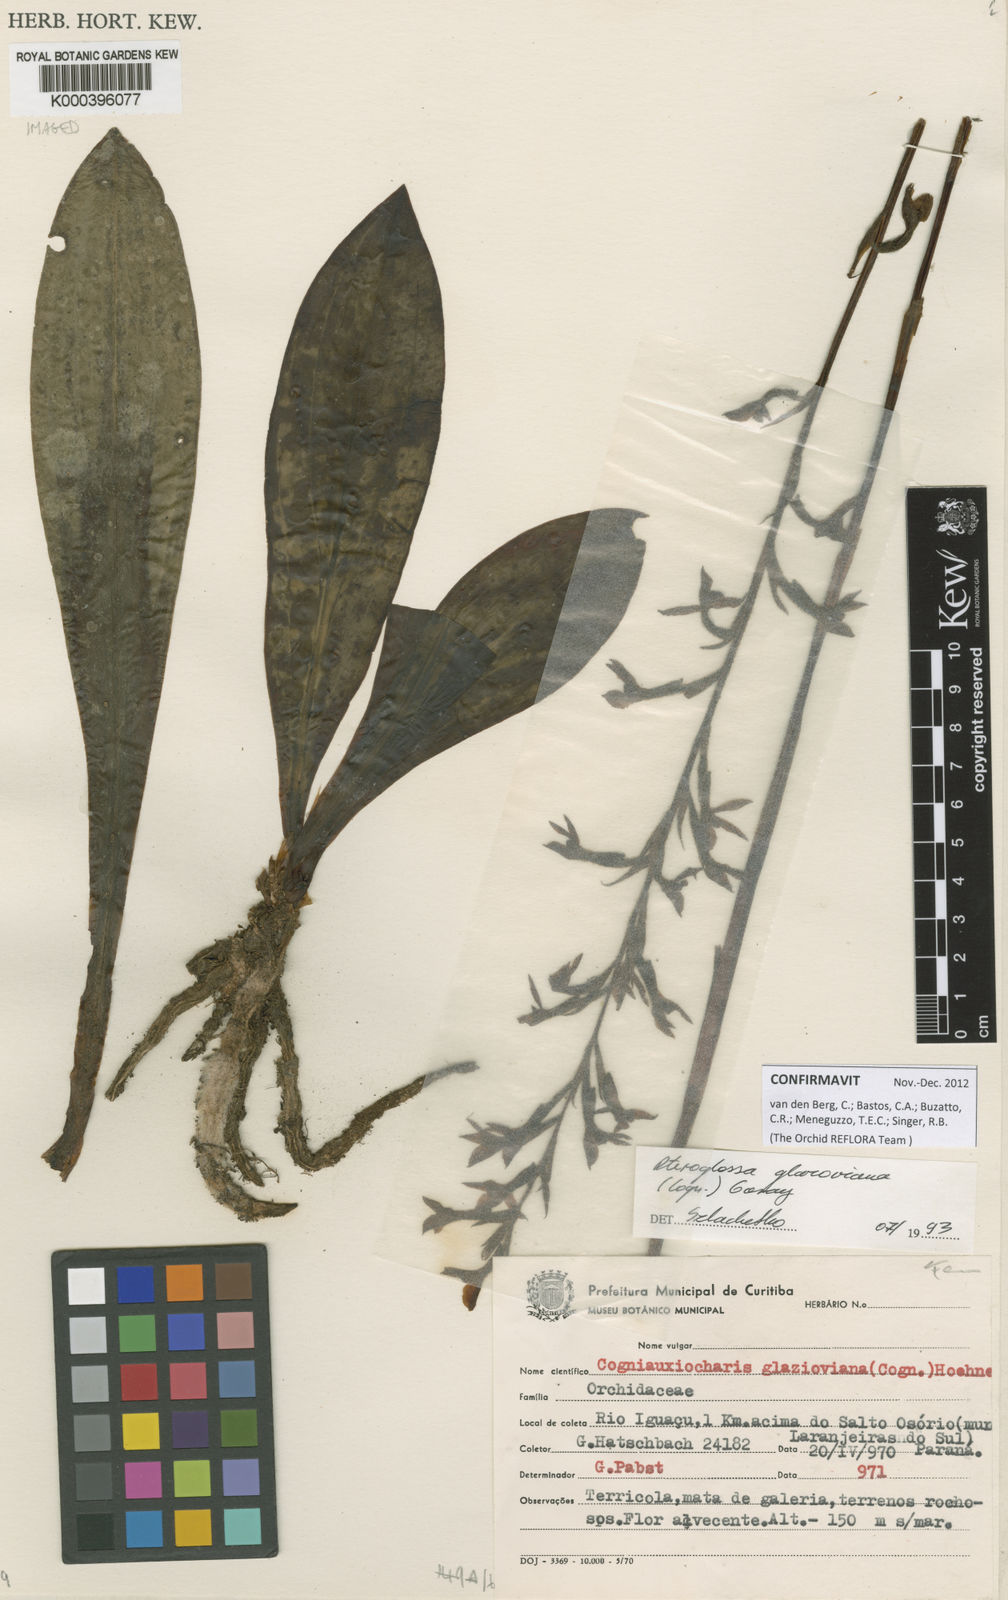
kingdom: Plantae
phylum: Tracheophyta
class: Liliopsida
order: Asparagales
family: Orchidaceae
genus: Pteroglossa
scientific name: Pteroglossa glazioviana
